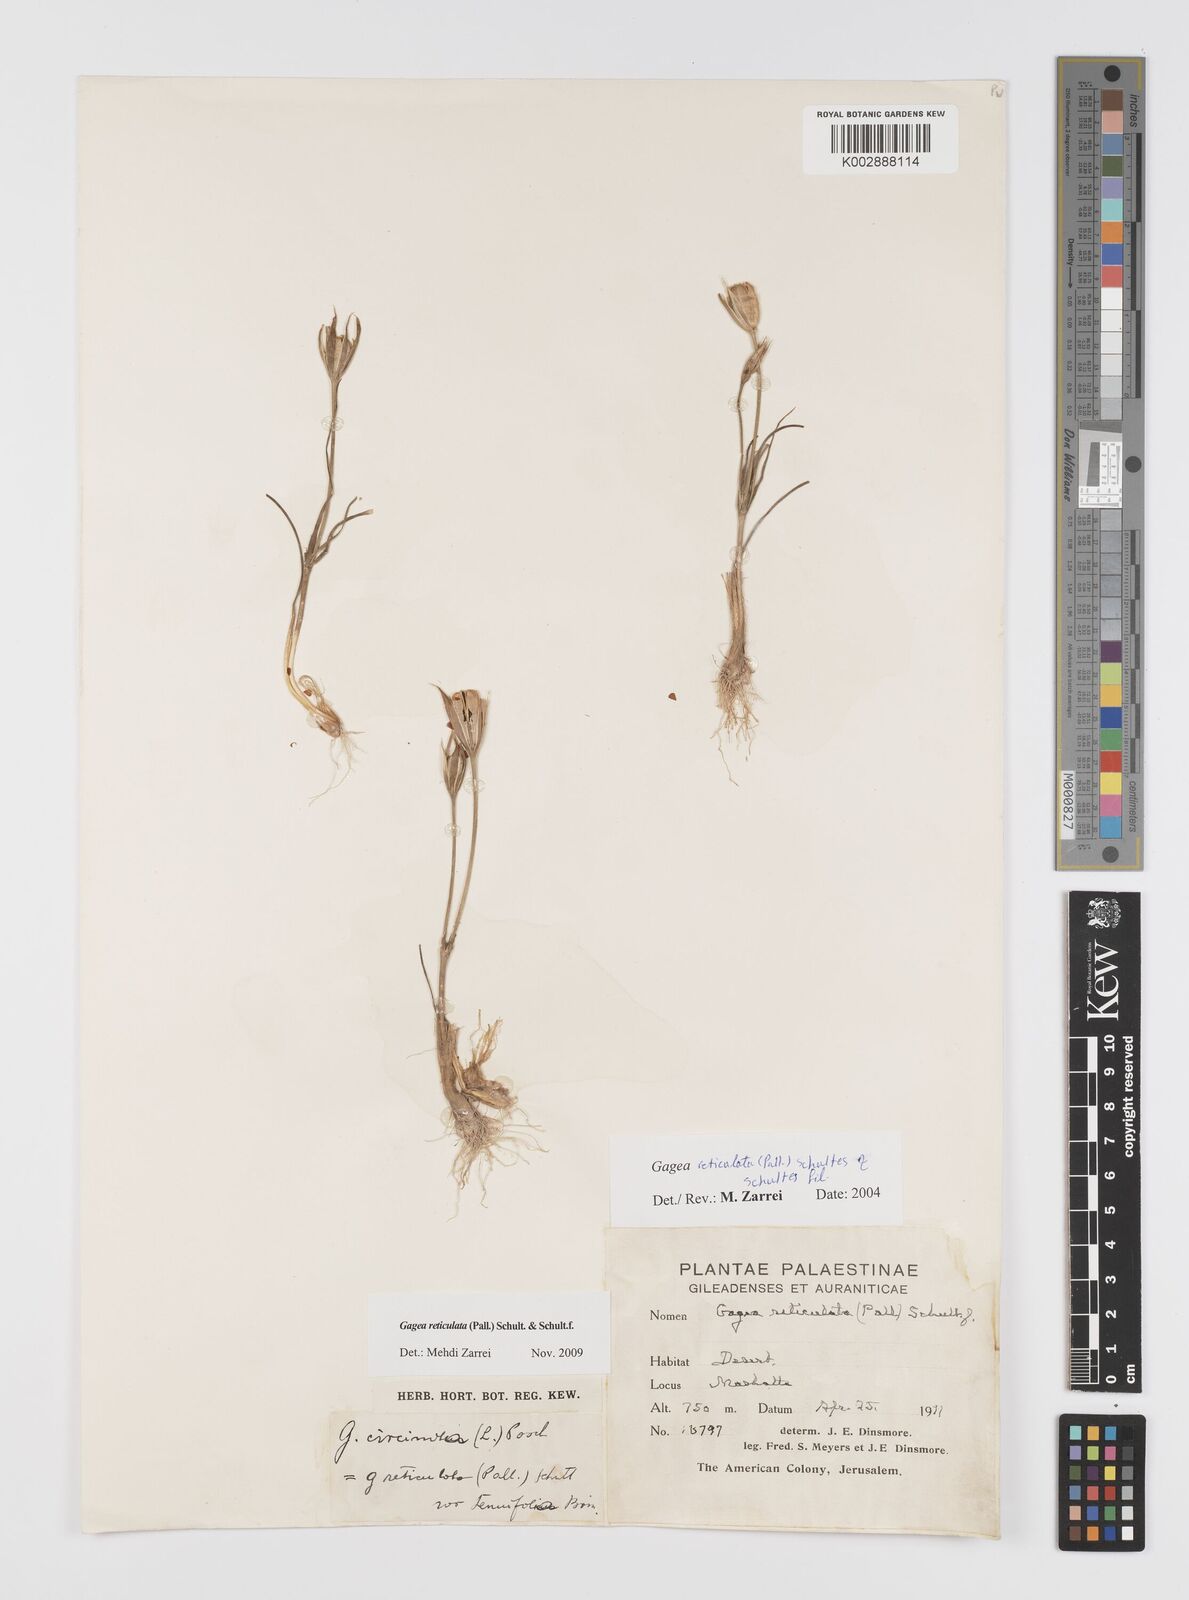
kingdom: Plantae
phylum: Tracheophyta
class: Liliopsida
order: Liliales
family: Liliaceae
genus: Gagea
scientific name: Gagea reticulata
